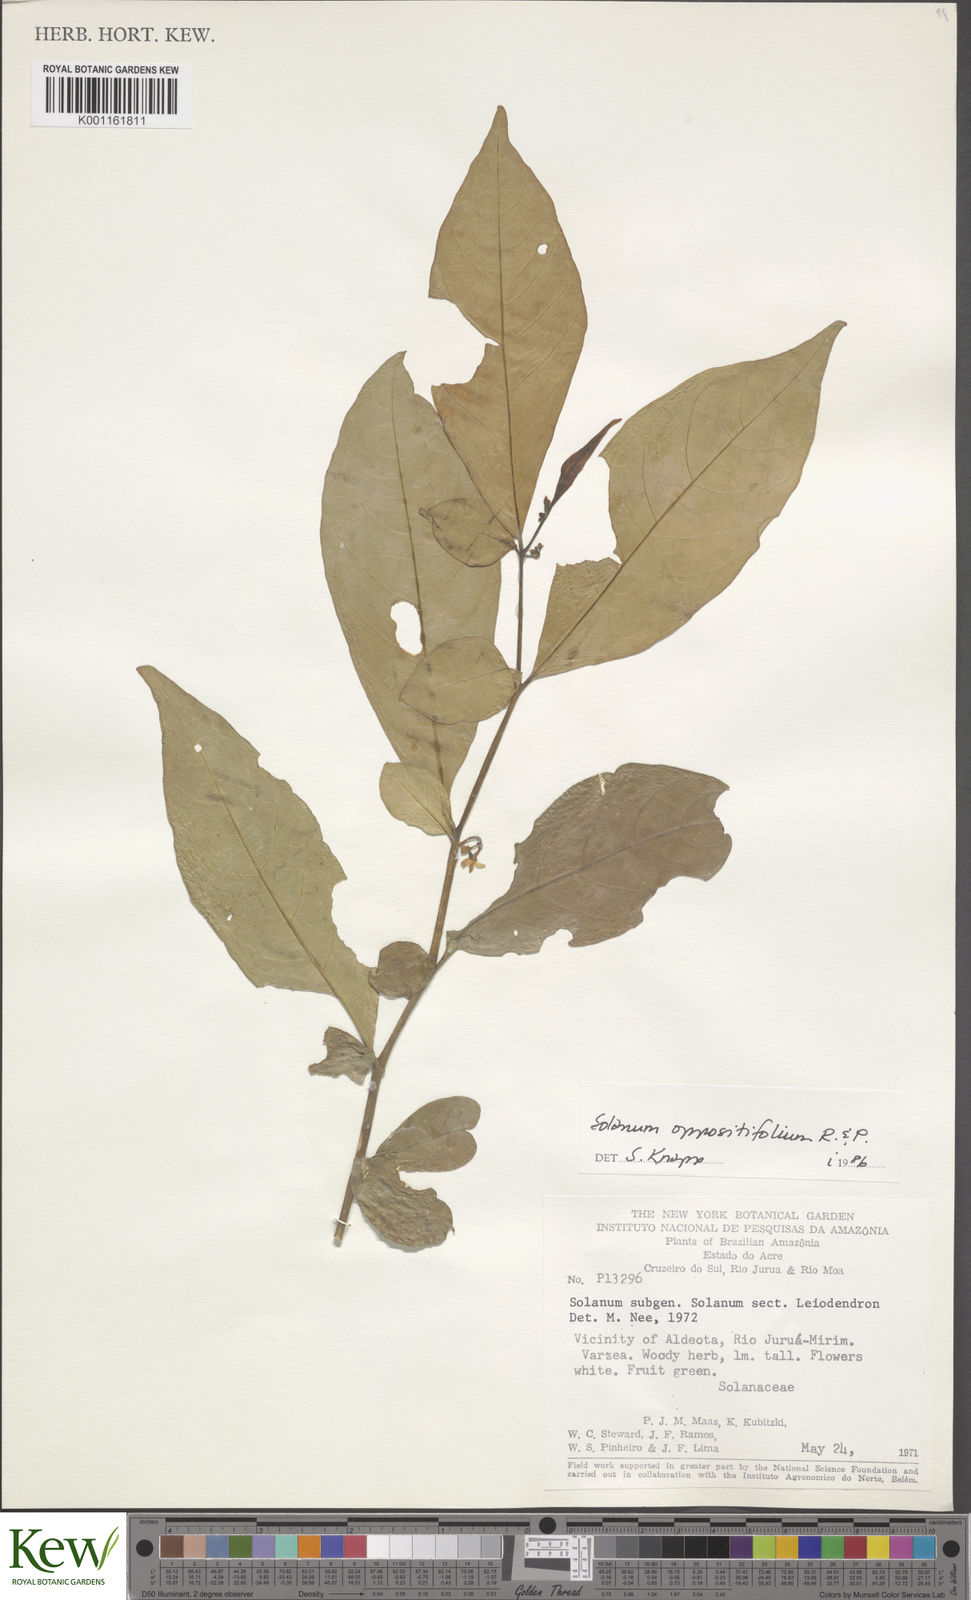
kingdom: Plantae
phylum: Tracheophyta
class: Magnoliopsida
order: Solanales
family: Solanaceae
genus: Solanum
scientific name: Solanum oppositifolium
